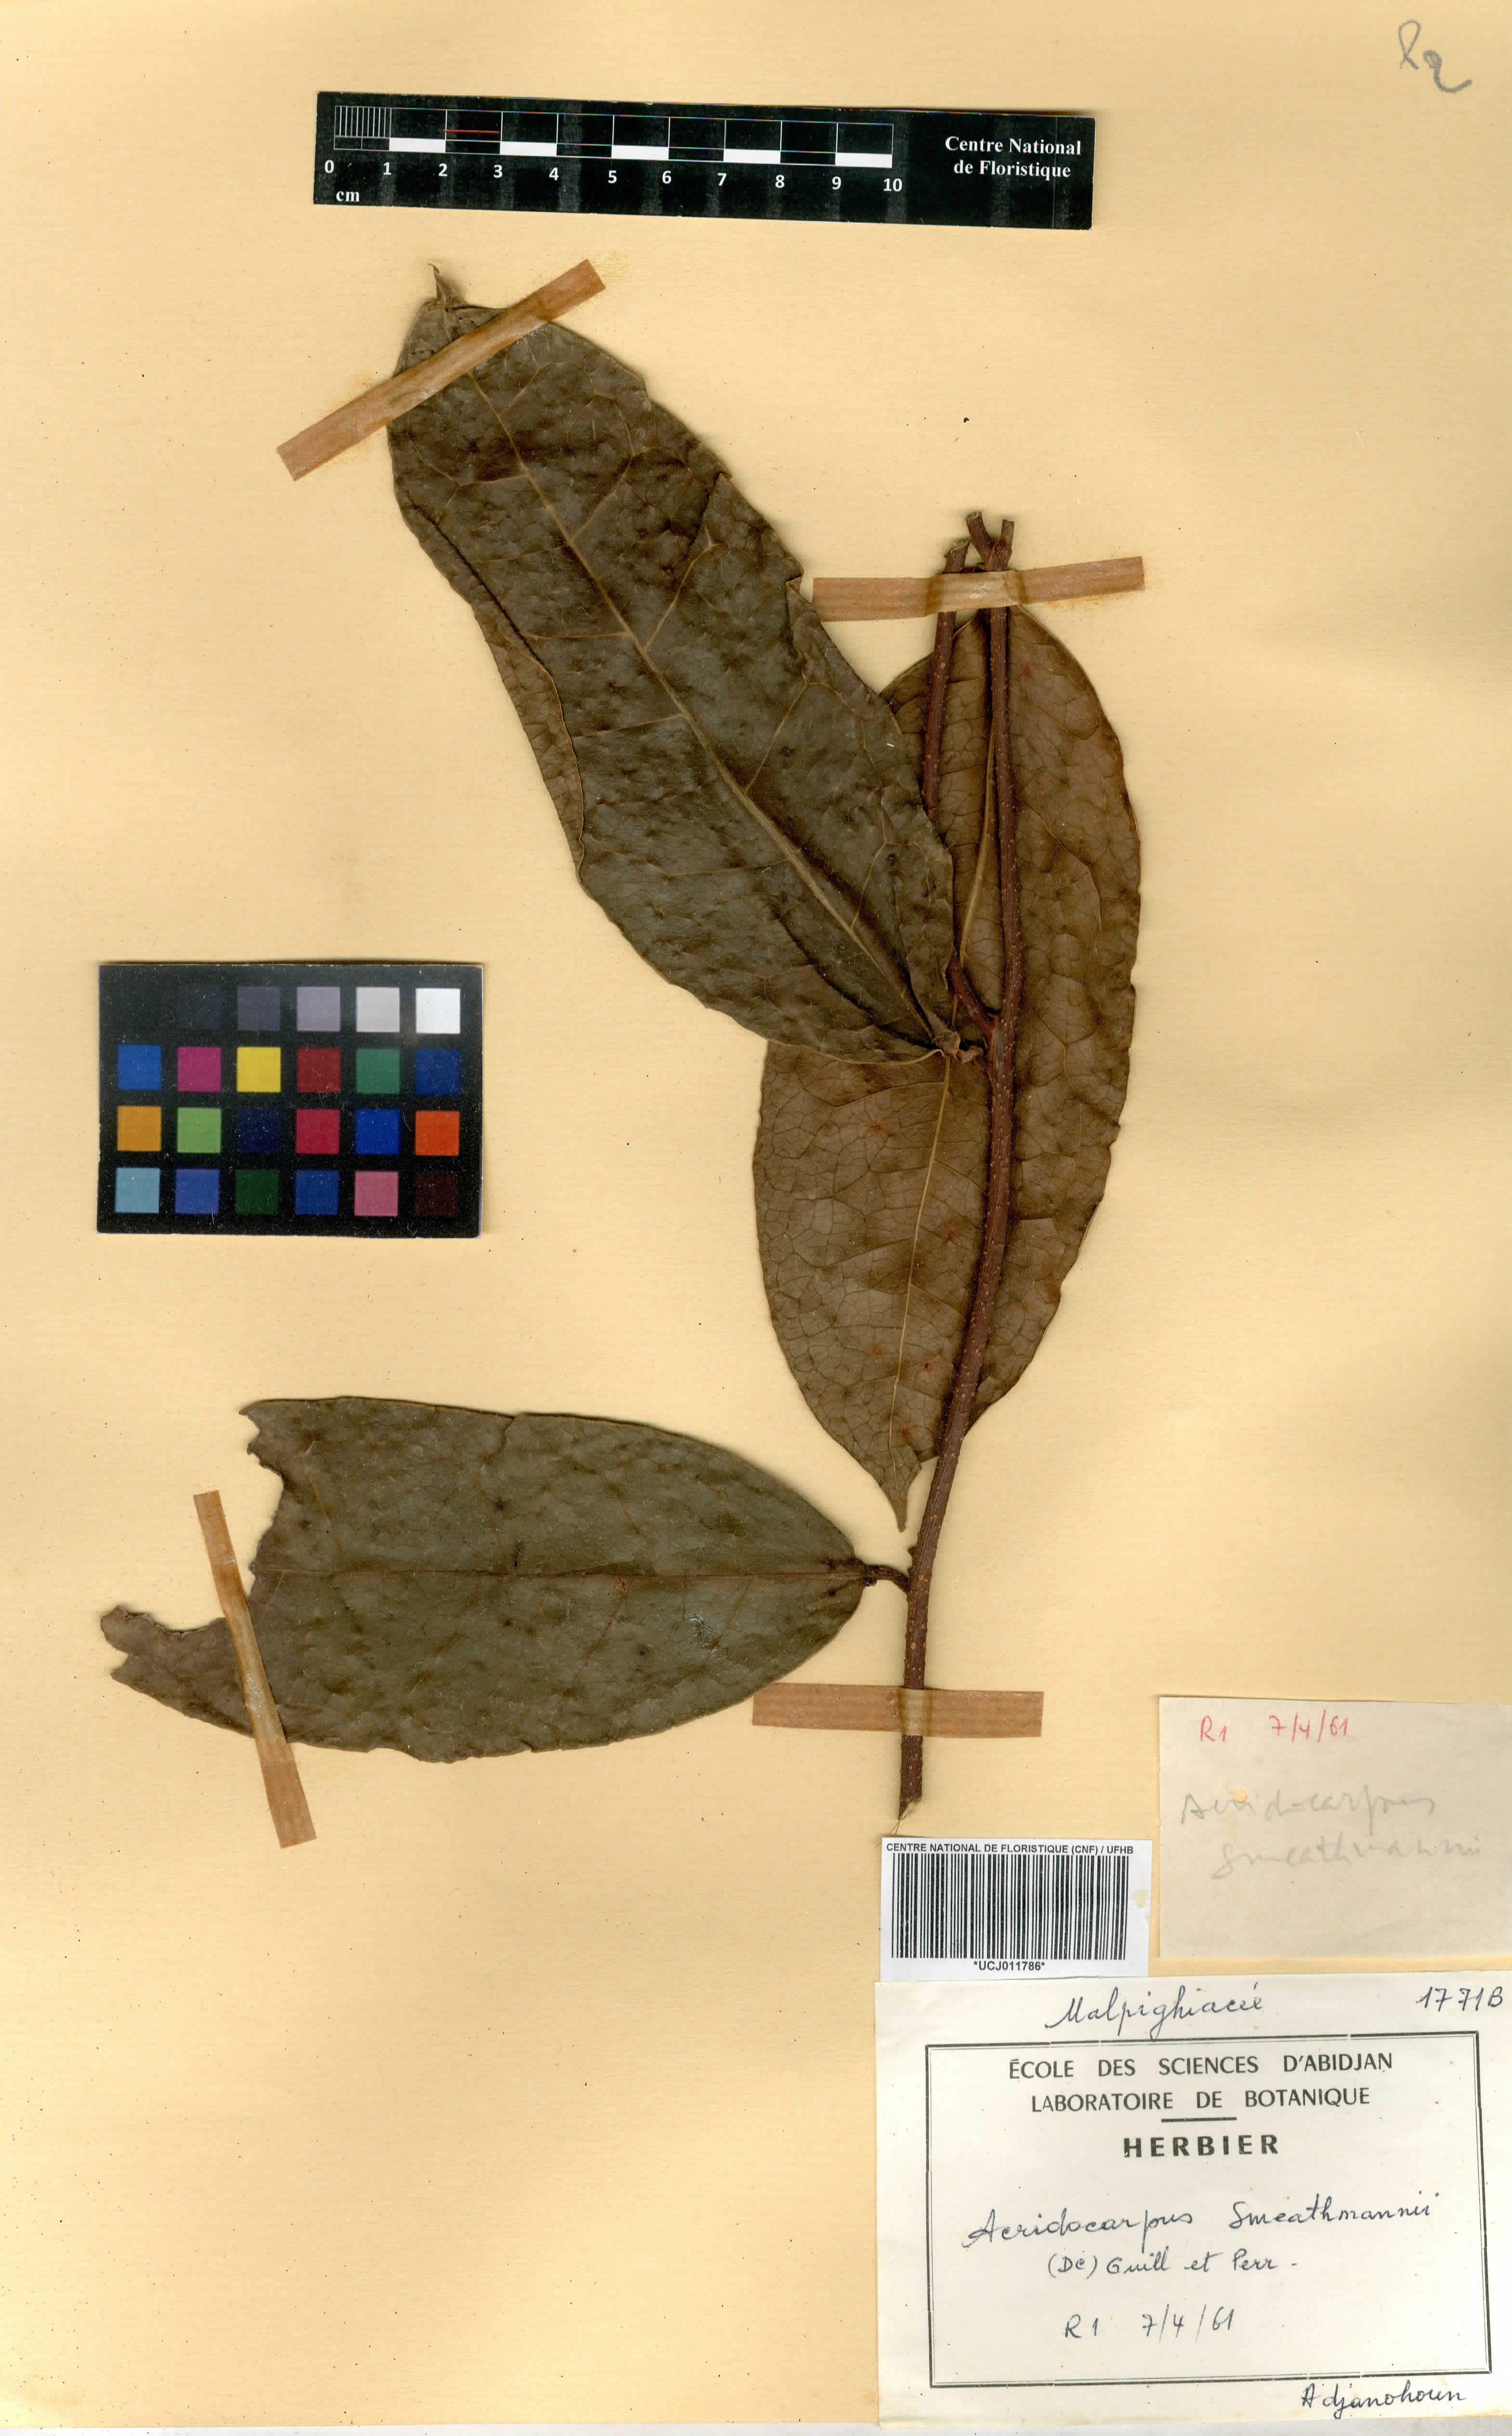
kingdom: Plantae
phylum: Tracheophyta
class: Magnoliopsida
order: Malpighiales
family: Malpighiaceae
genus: Acridocarpus
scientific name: Acridocarpus smeathmannii
